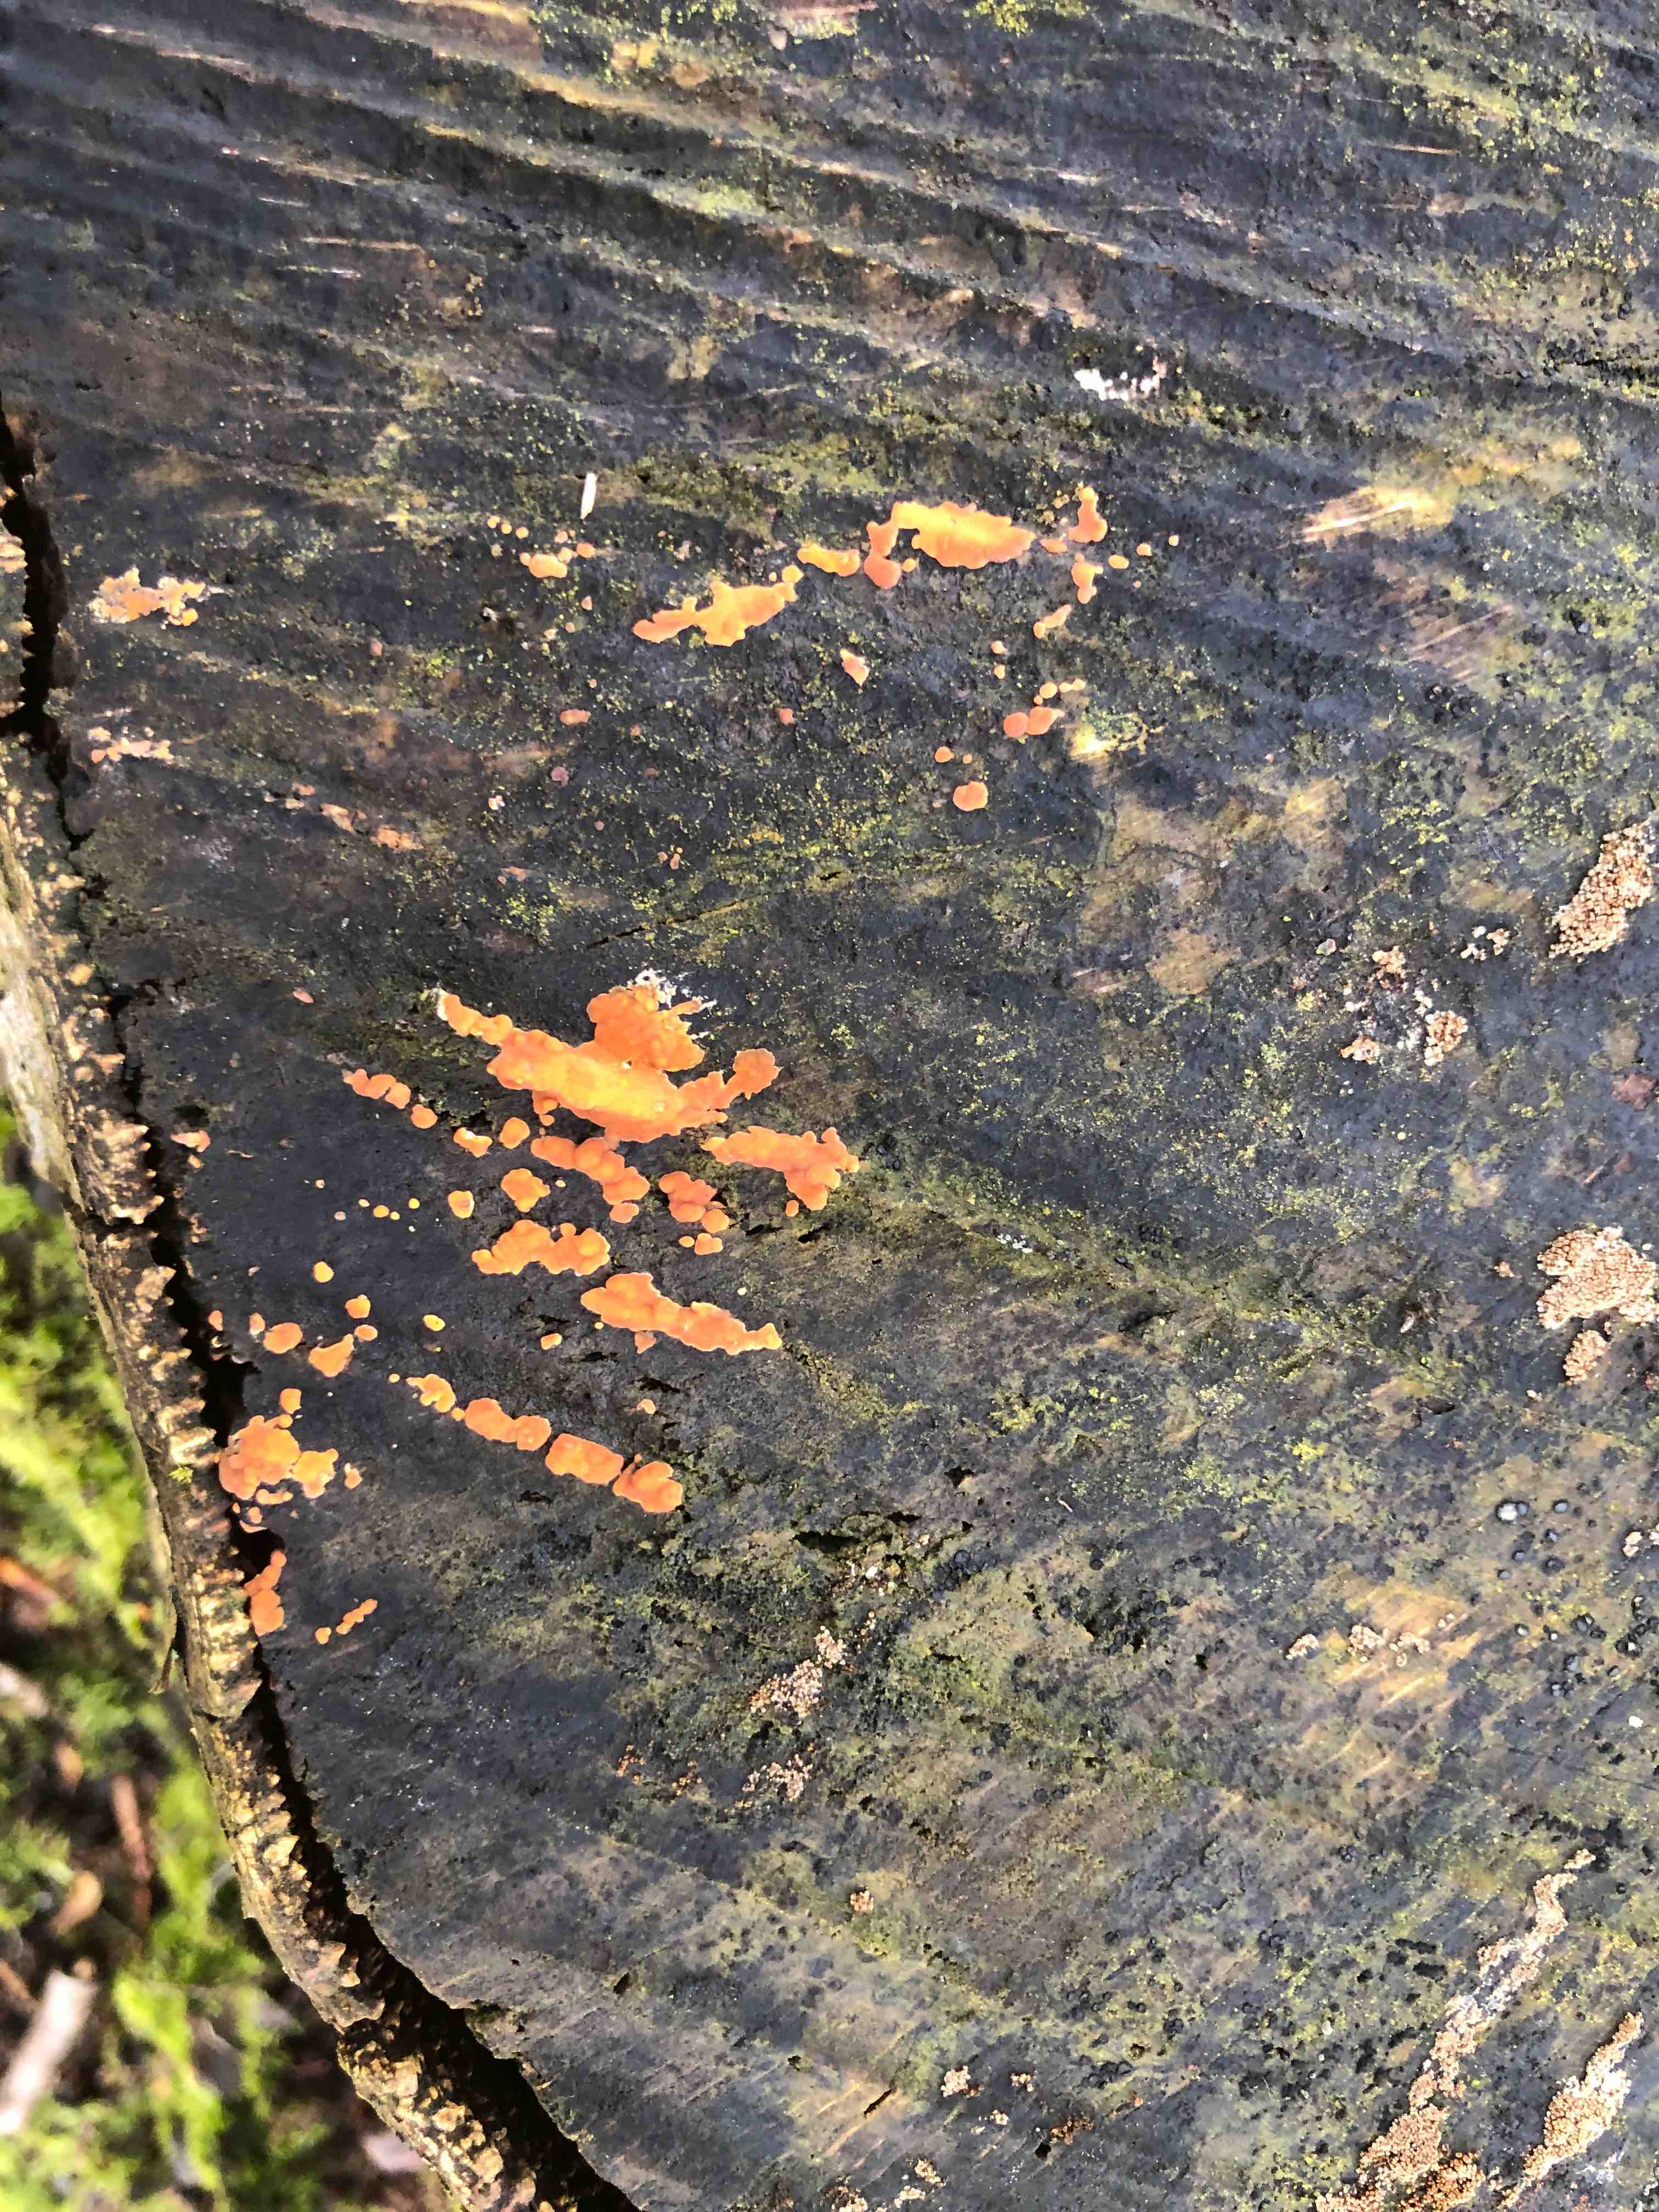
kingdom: Fungi
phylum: Basidiomycota
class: Agaricomycetes
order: Russulales
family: Peniophoraceae
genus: Peniophora
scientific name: Peniophora incarnata
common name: laksefarvet voksskind
